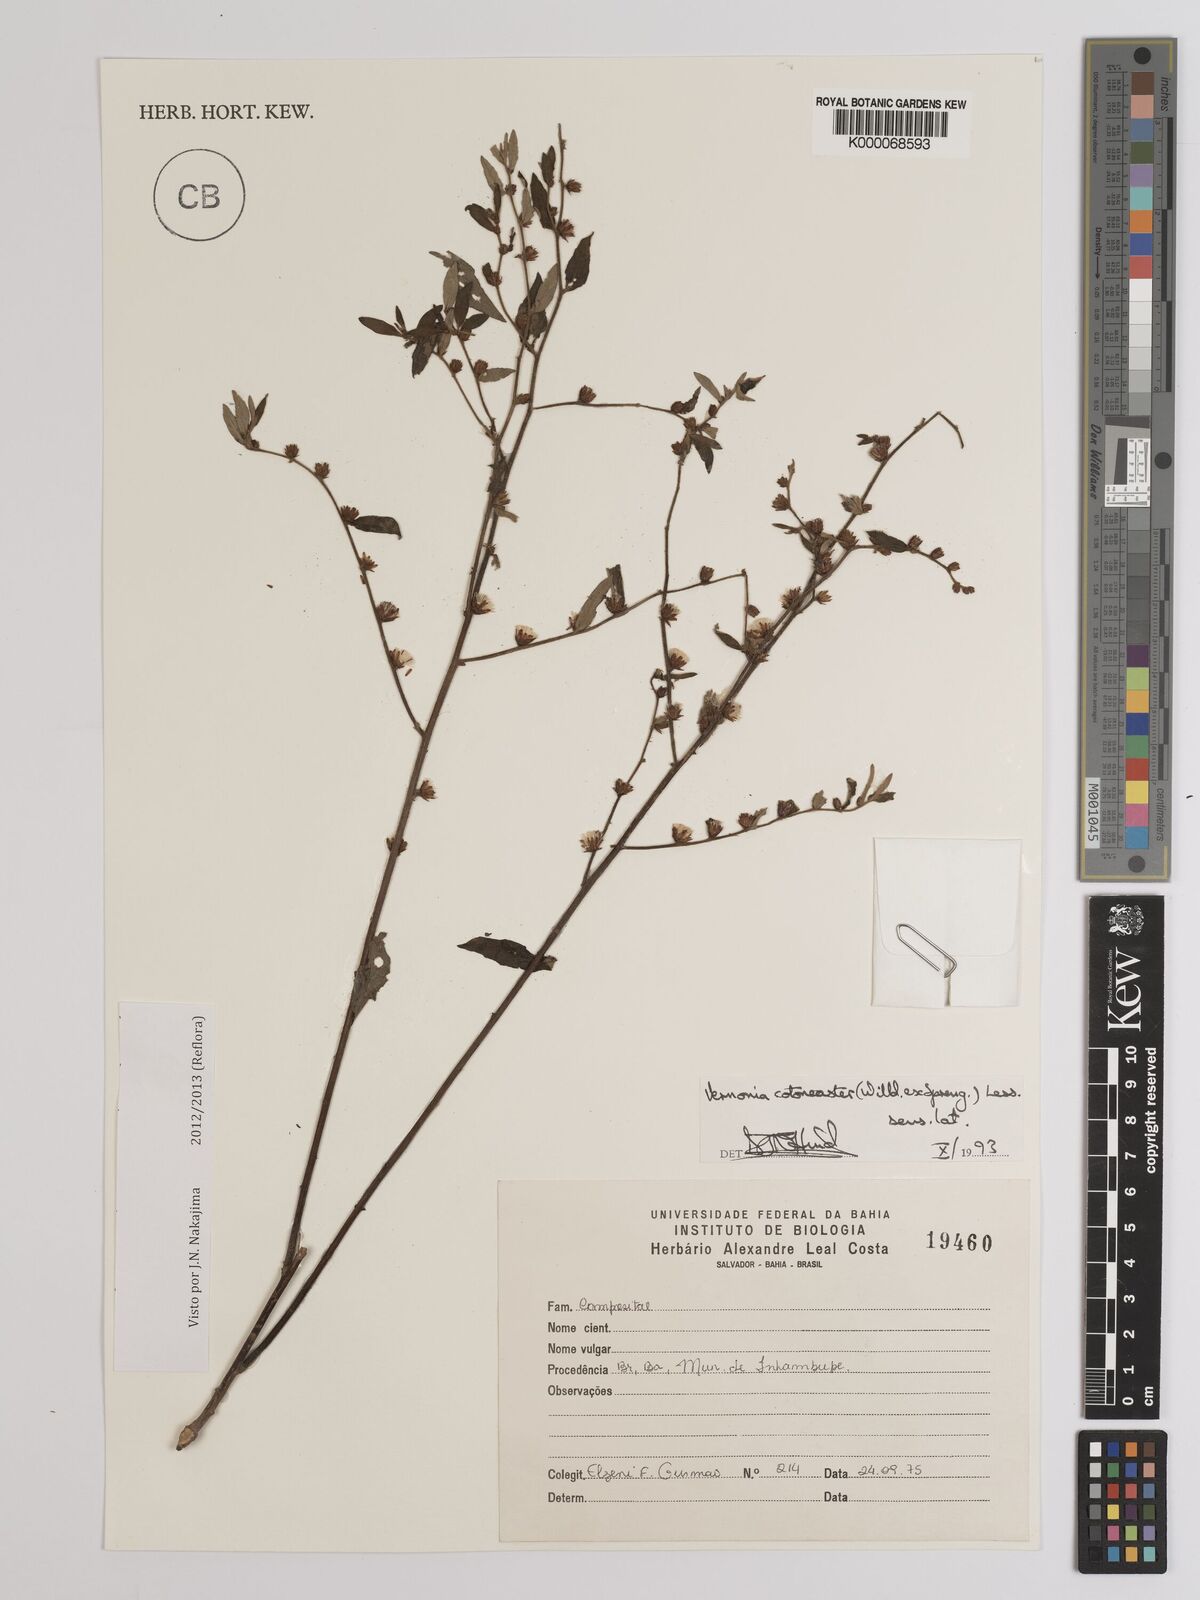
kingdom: Plantae
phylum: Tracheophyta
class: Magnoliopsida
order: Asterales
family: Asteraceae
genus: Lepidaploa
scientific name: Lepidaploa cotoneaster
